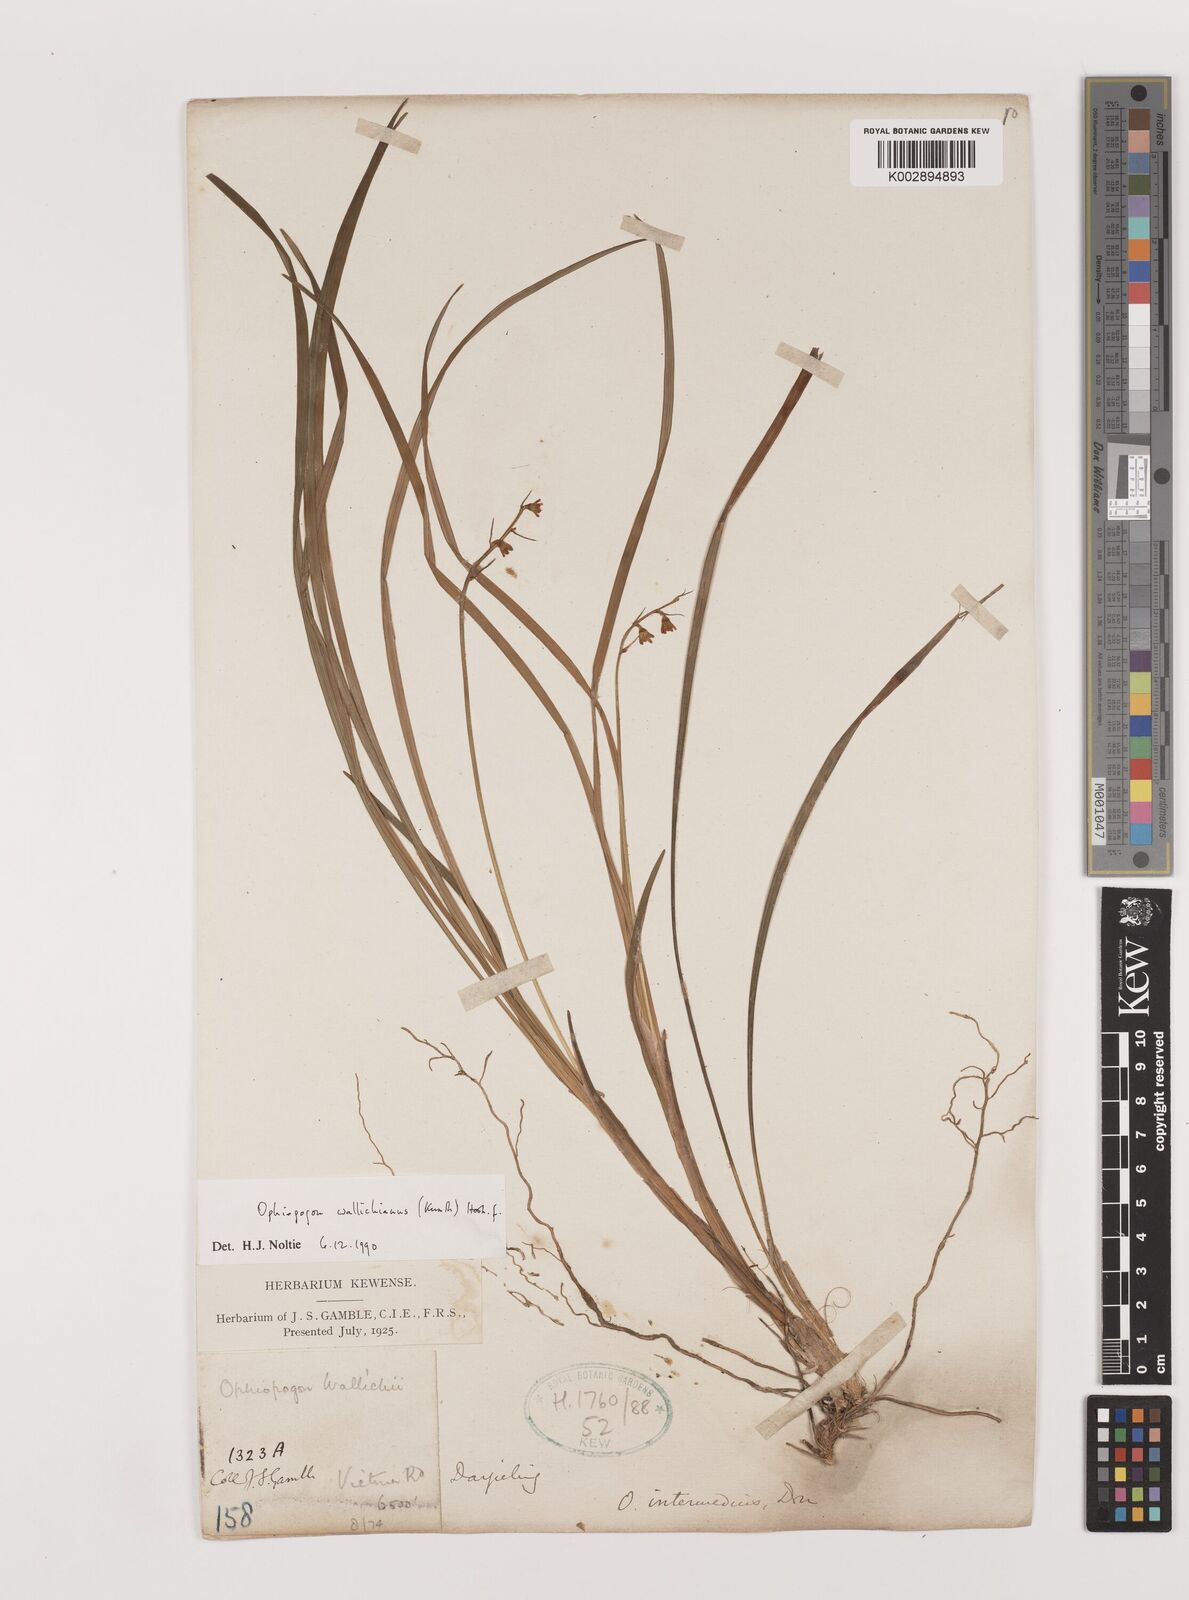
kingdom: Plantae
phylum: Tracheophyta
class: Liliopsida
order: Asparagales
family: Asparagaceae
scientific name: Asparagaceae
